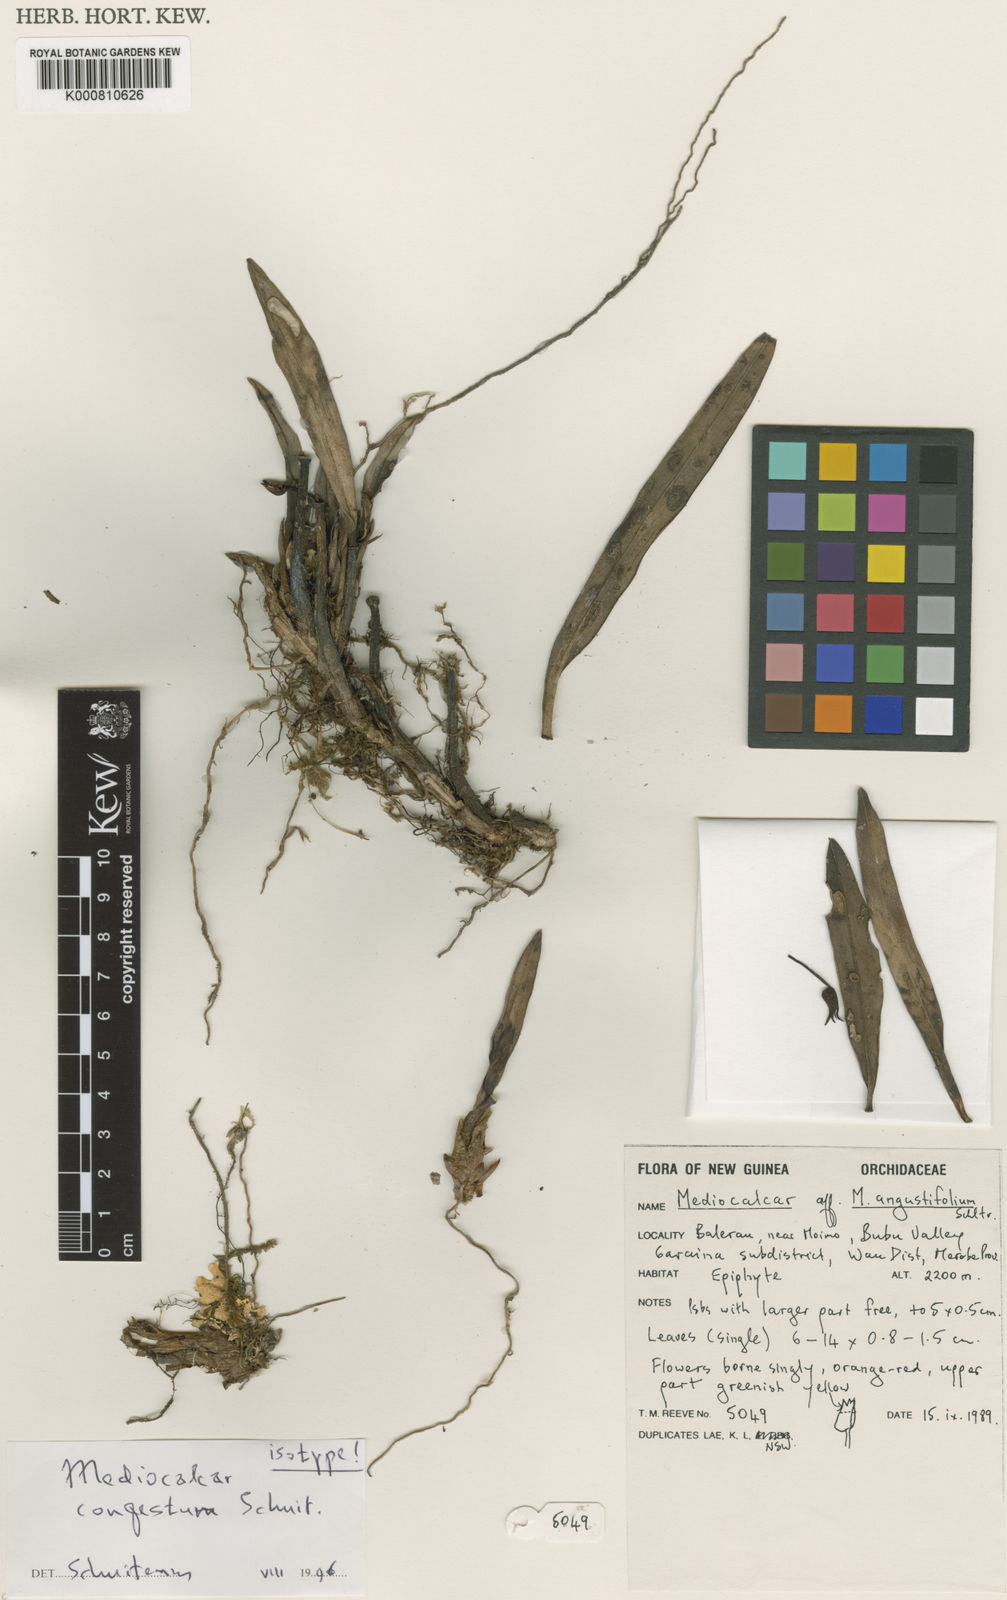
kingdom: Plantae
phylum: Tracheophyta
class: Liliopsida
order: Asparagales
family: Orchidaceae
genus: Mediocalcar
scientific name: Mediocalcar congestum
